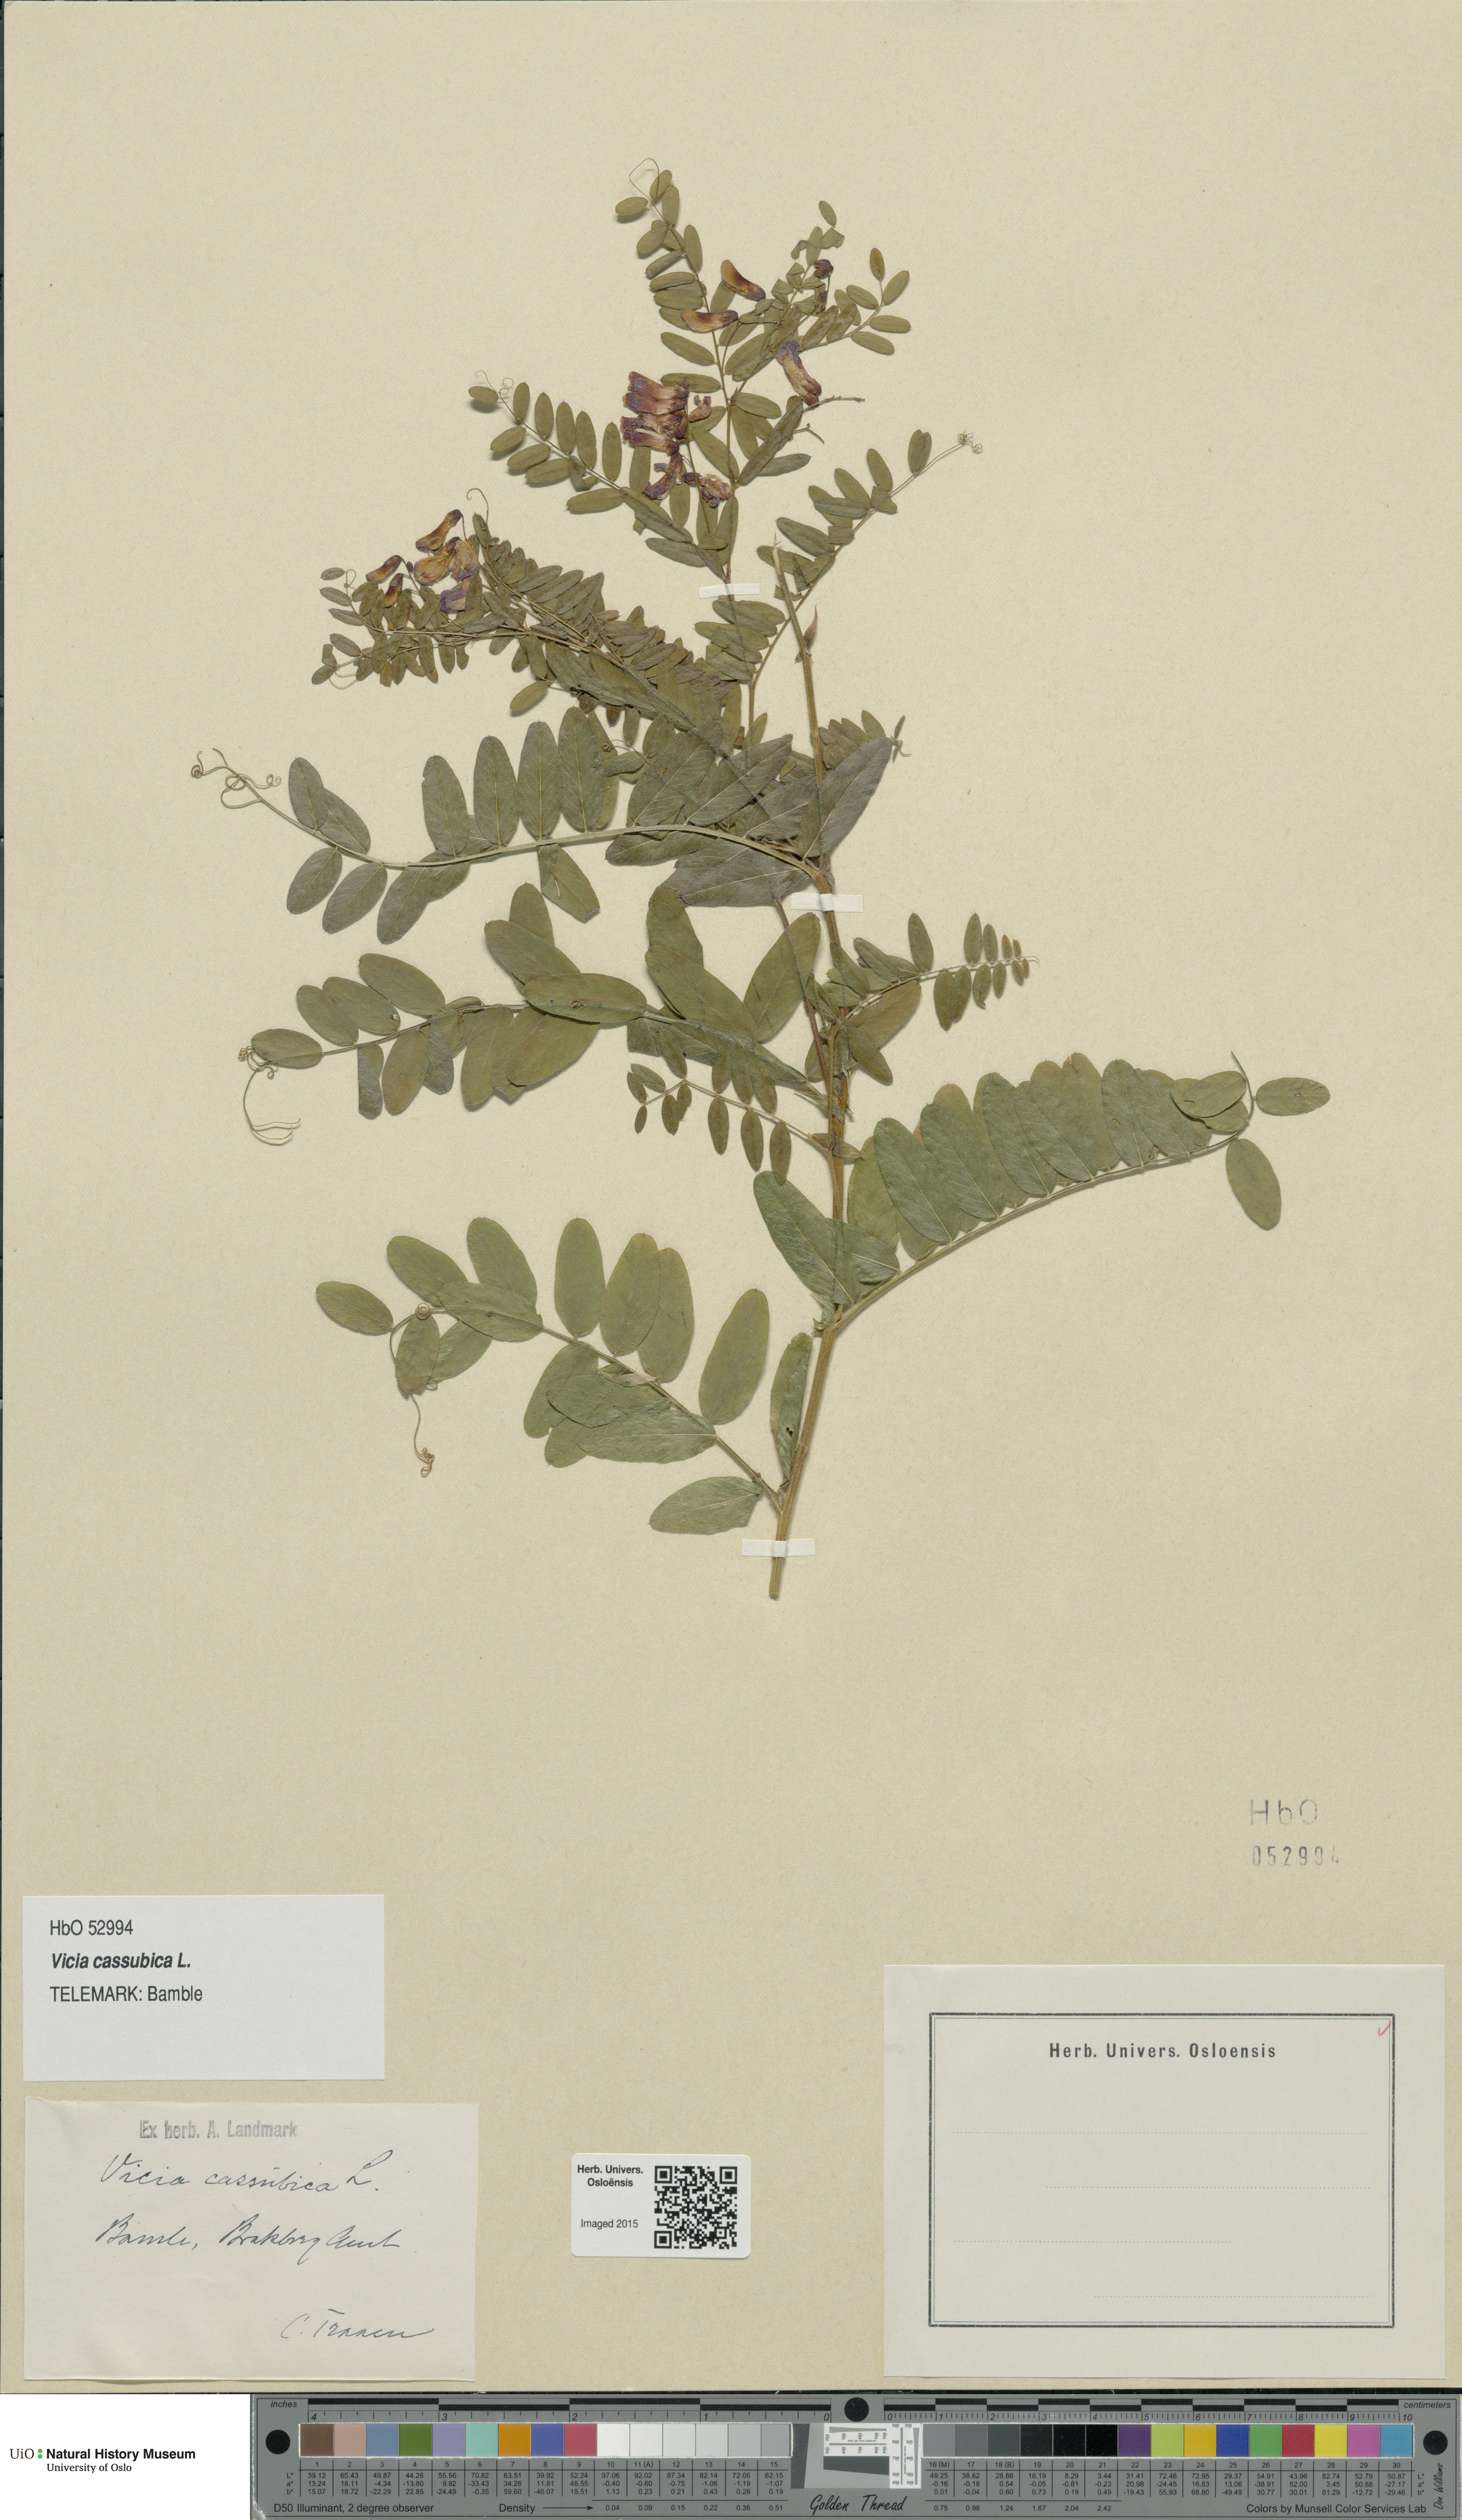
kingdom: Plantae
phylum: Tracheophyta
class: Magnoliopsida
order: Fabales
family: Fabaceae
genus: Vicia
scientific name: Vicia cassubica
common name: Danzig vetch
